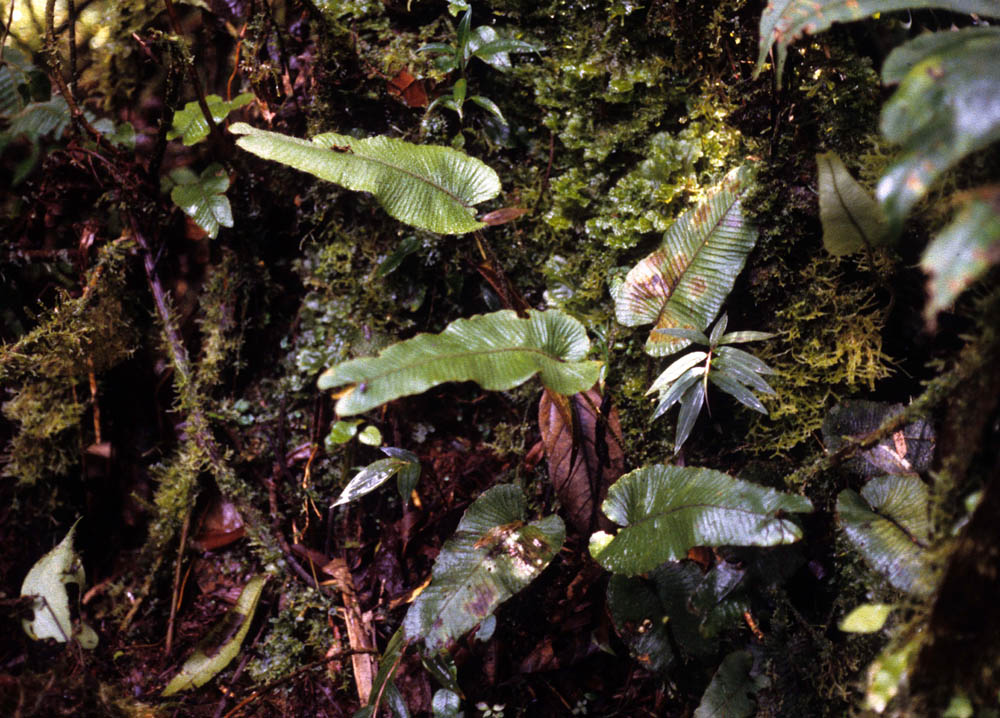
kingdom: Plantae
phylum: Tracheophyta
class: Polypodiopsida
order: Polypodiales
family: Dryopteridaceae
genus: Elaphoglossum
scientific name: Elaphoglossum
